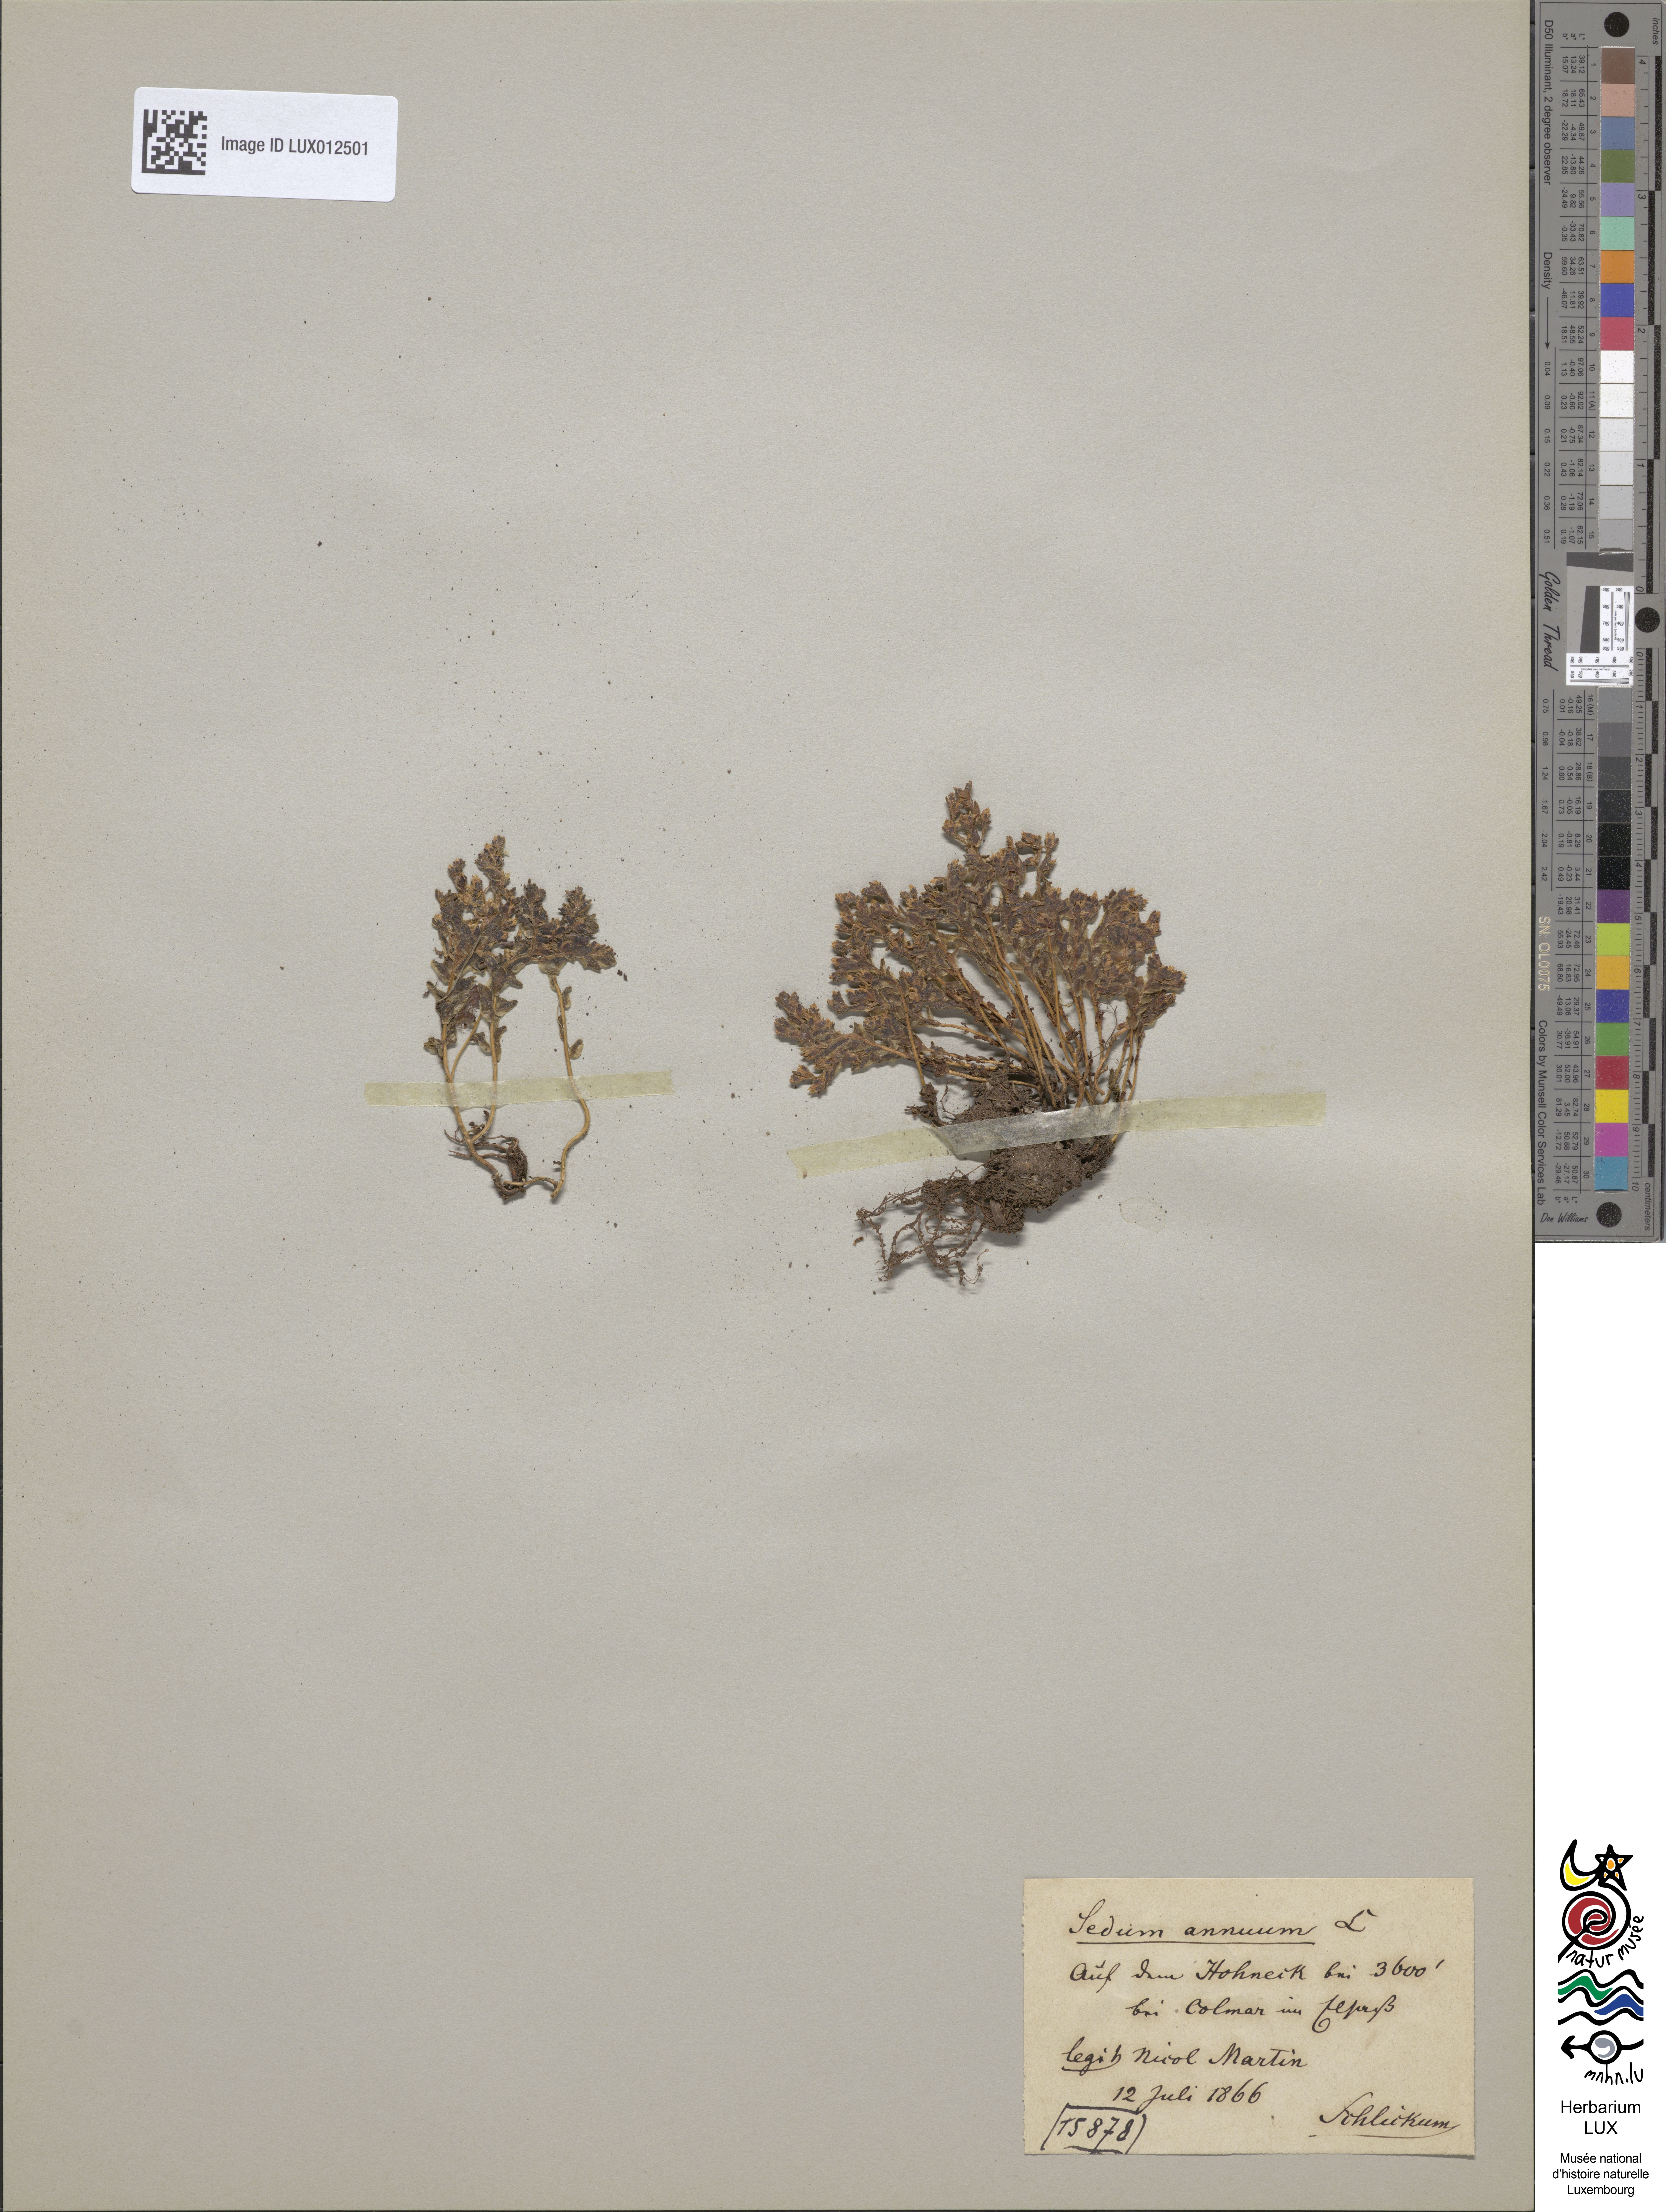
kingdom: Plantae
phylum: Tracheophyta
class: Magnoliopsida
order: Saxifragales
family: Crassulaceae
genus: Sedum
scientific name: Sedum annuum
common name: Annual stonecrop
